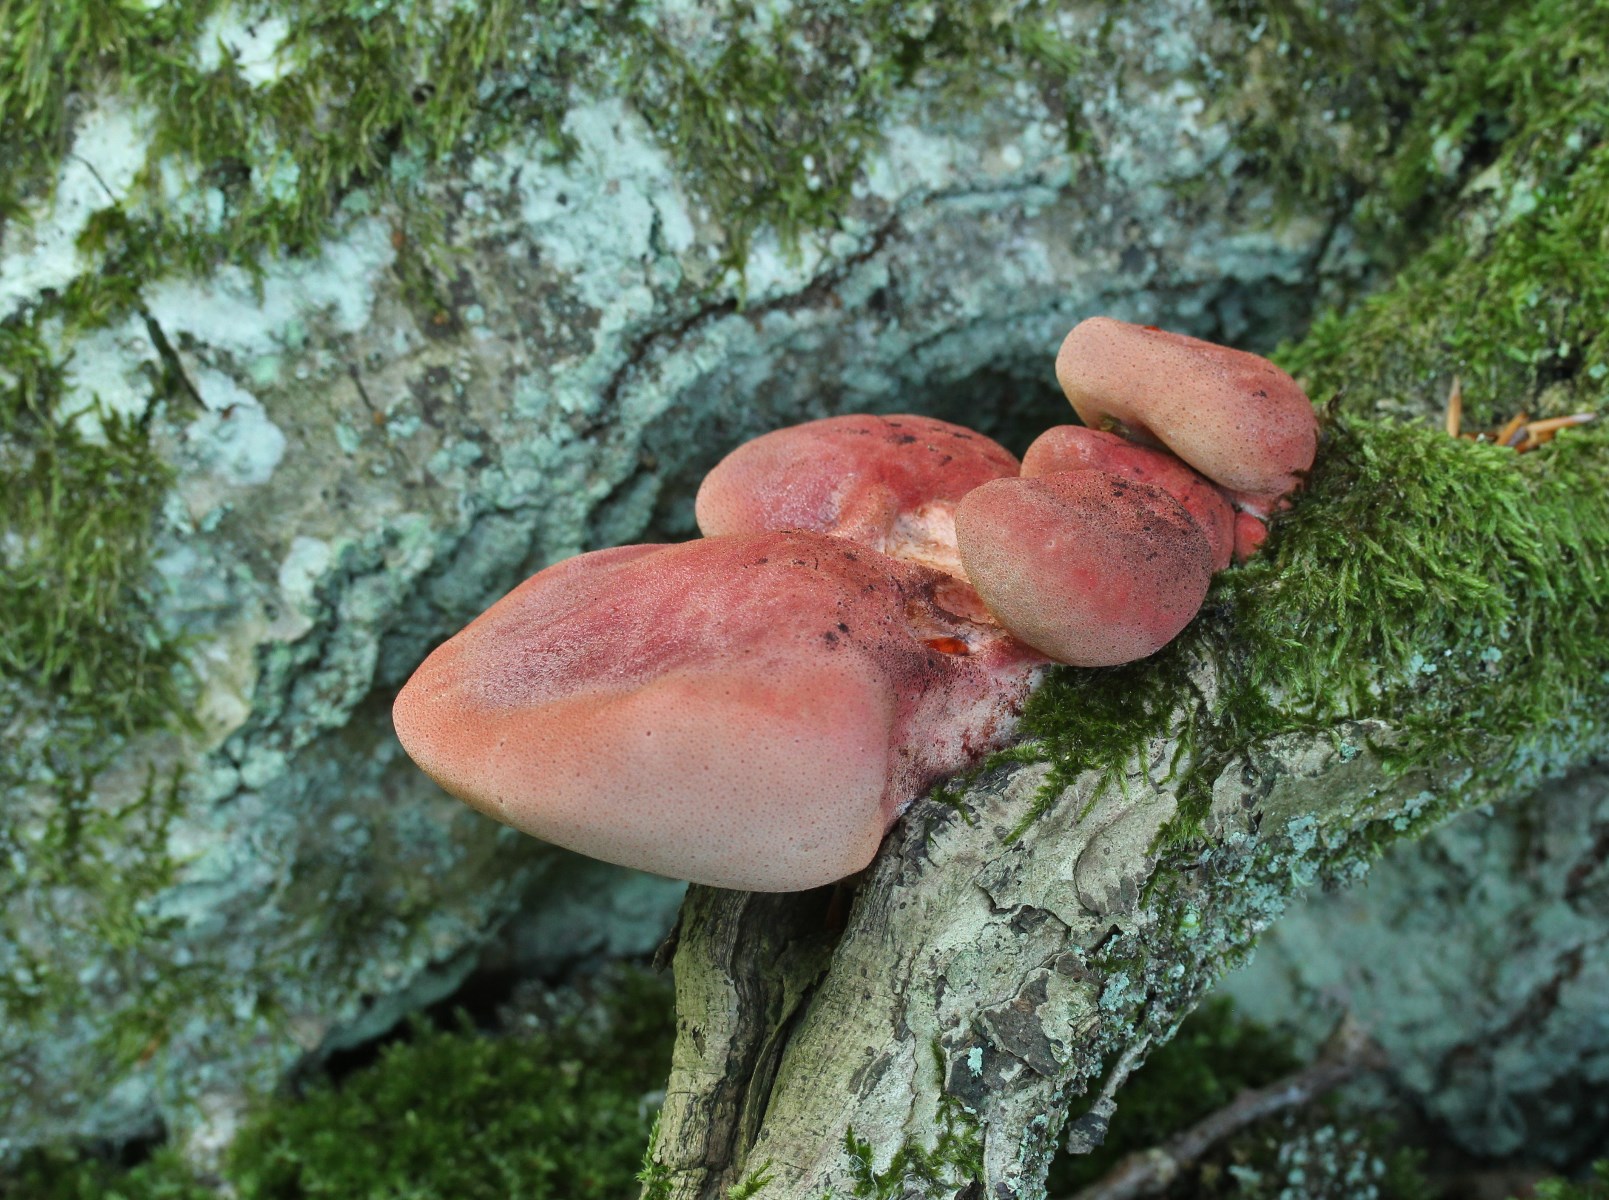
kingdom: Fungi
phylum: Basidiomycota
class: Agaricomycetes
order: Agaricales
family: Fistulinaceae
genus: Fistulina
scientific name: Fistulina hepatica
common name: oksetunge
